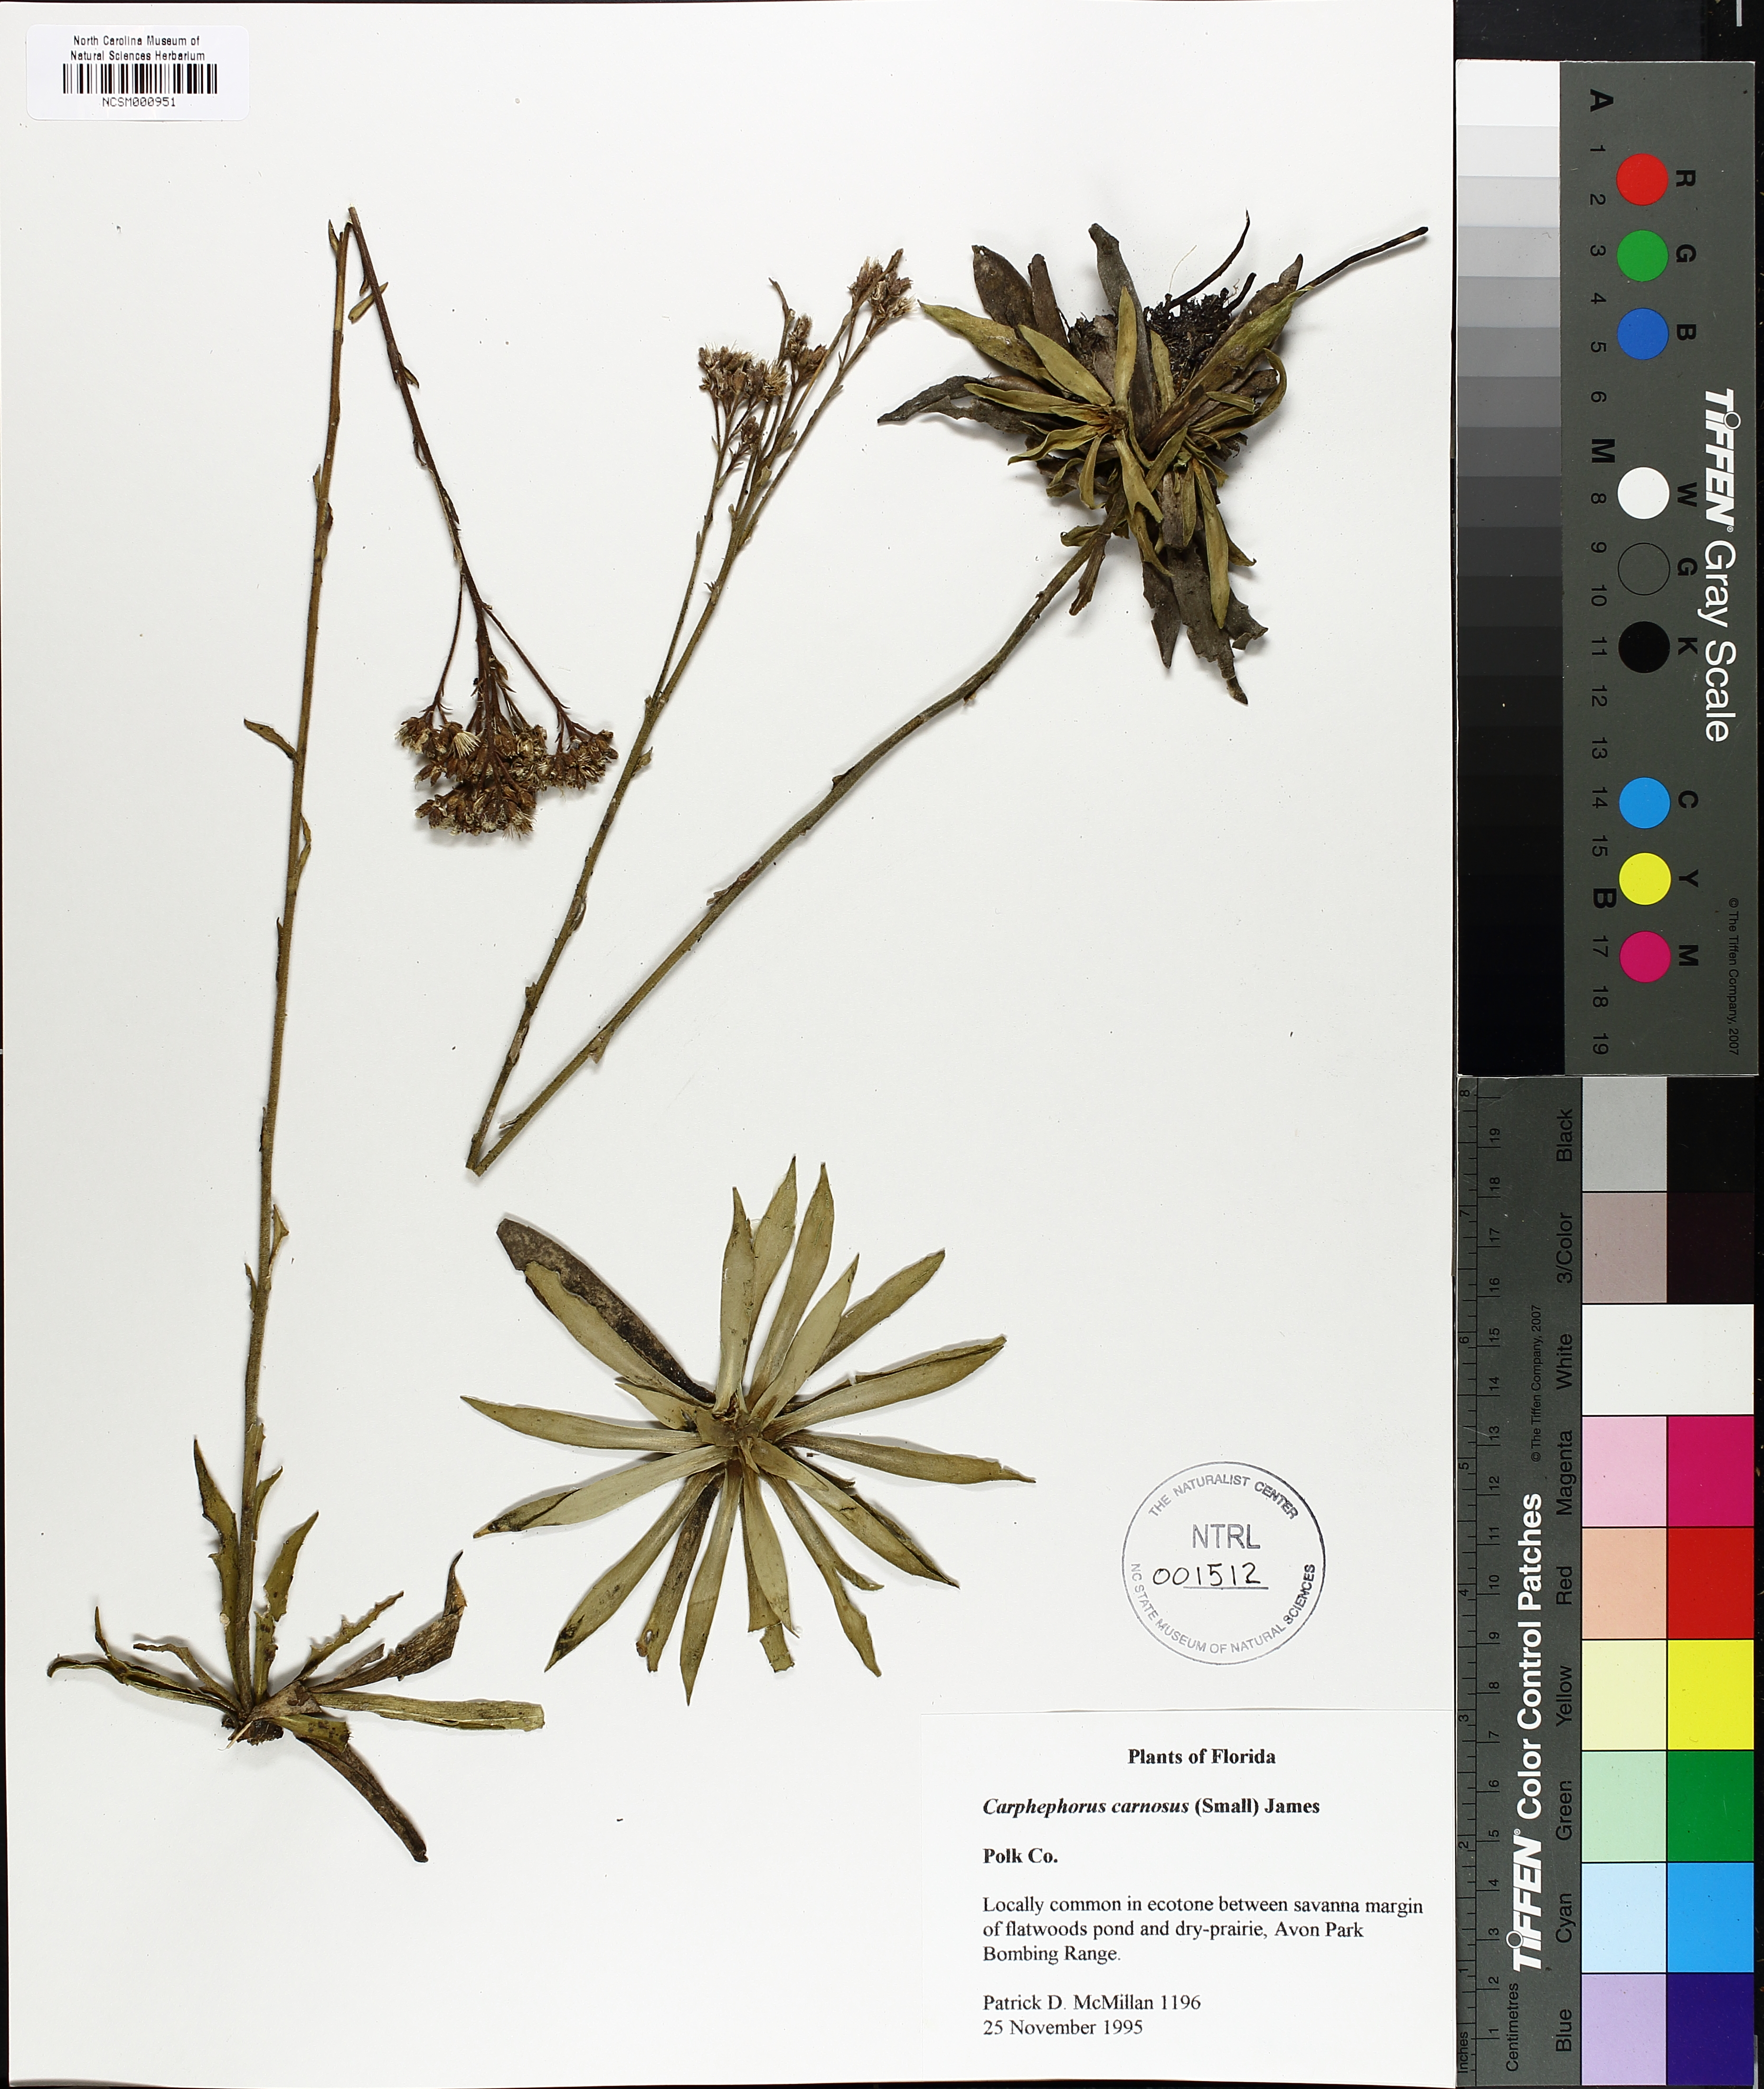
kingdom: Plantae
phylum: Tracheophyta
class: Magnoliopsida
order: Asterales
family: Asteraceae
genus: Carphephorus
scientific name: Carphephorus carnosus
